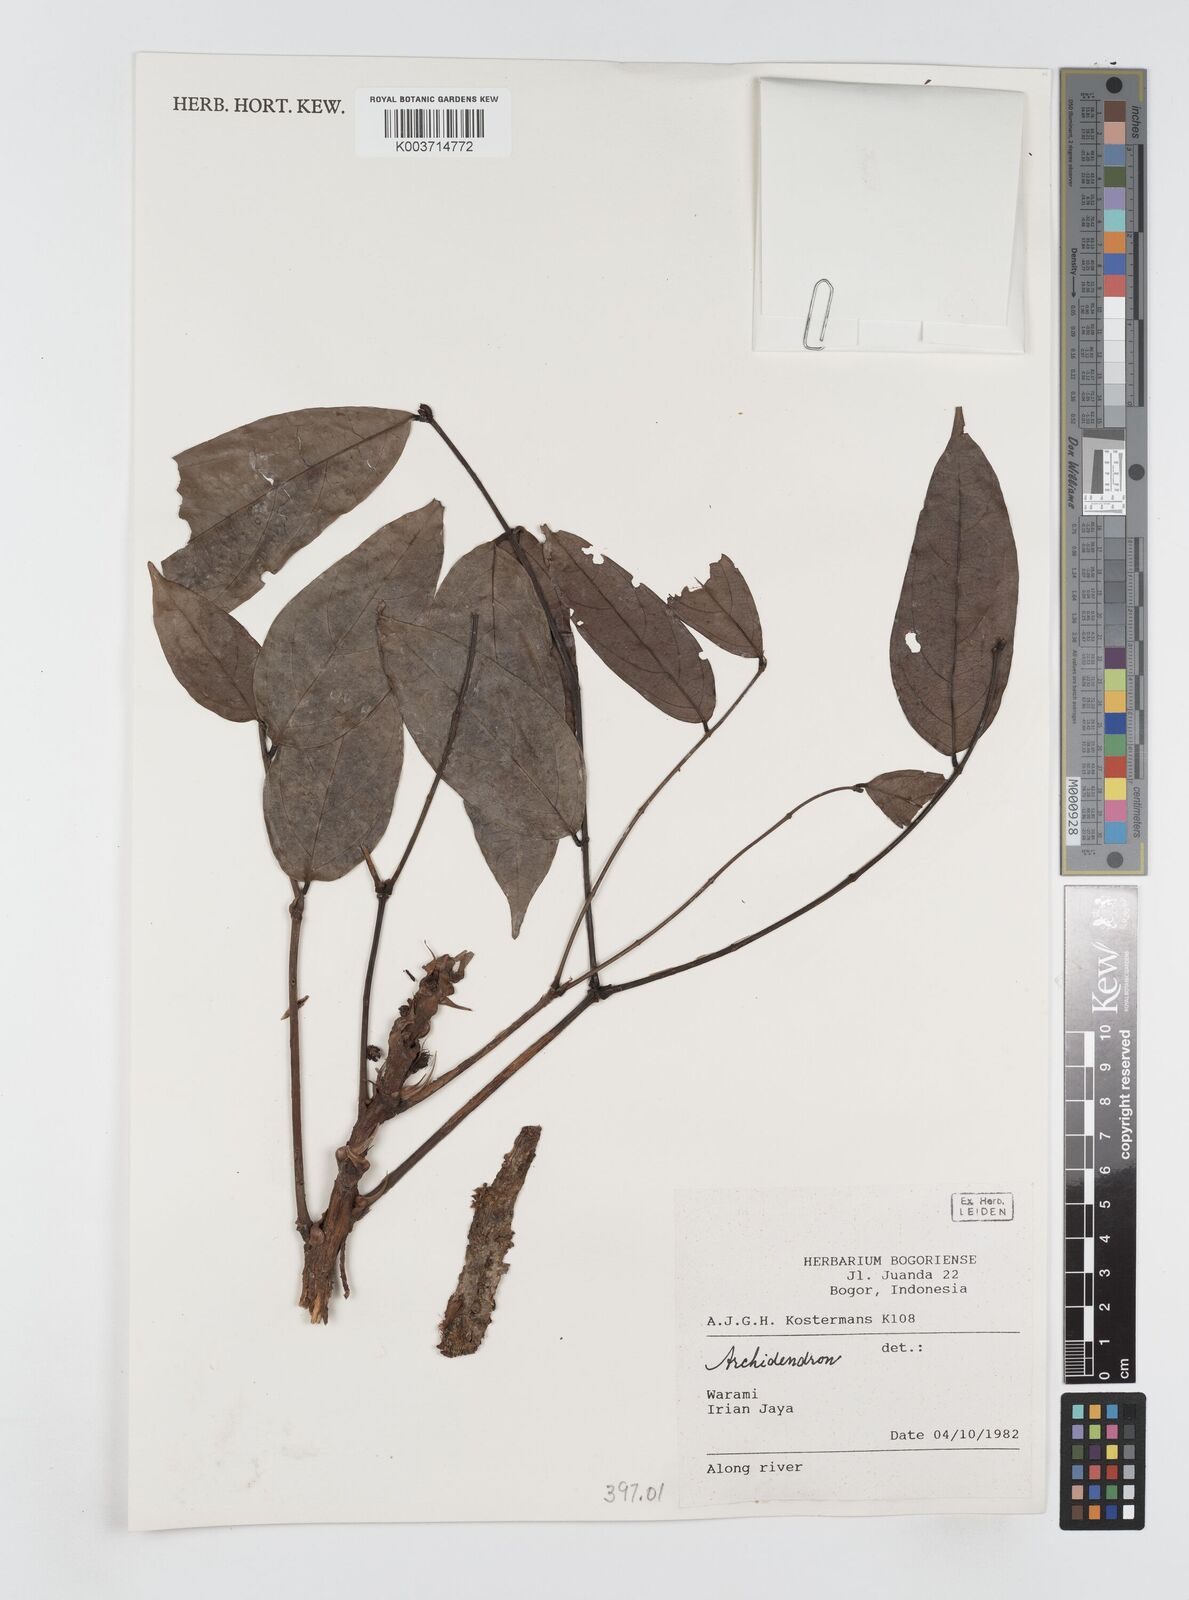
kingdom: Plantae
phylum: Tracheophyta
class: Magnoliopsida
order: Fabales
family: Fabaceae
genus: Archidendron
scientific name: Archidendron
